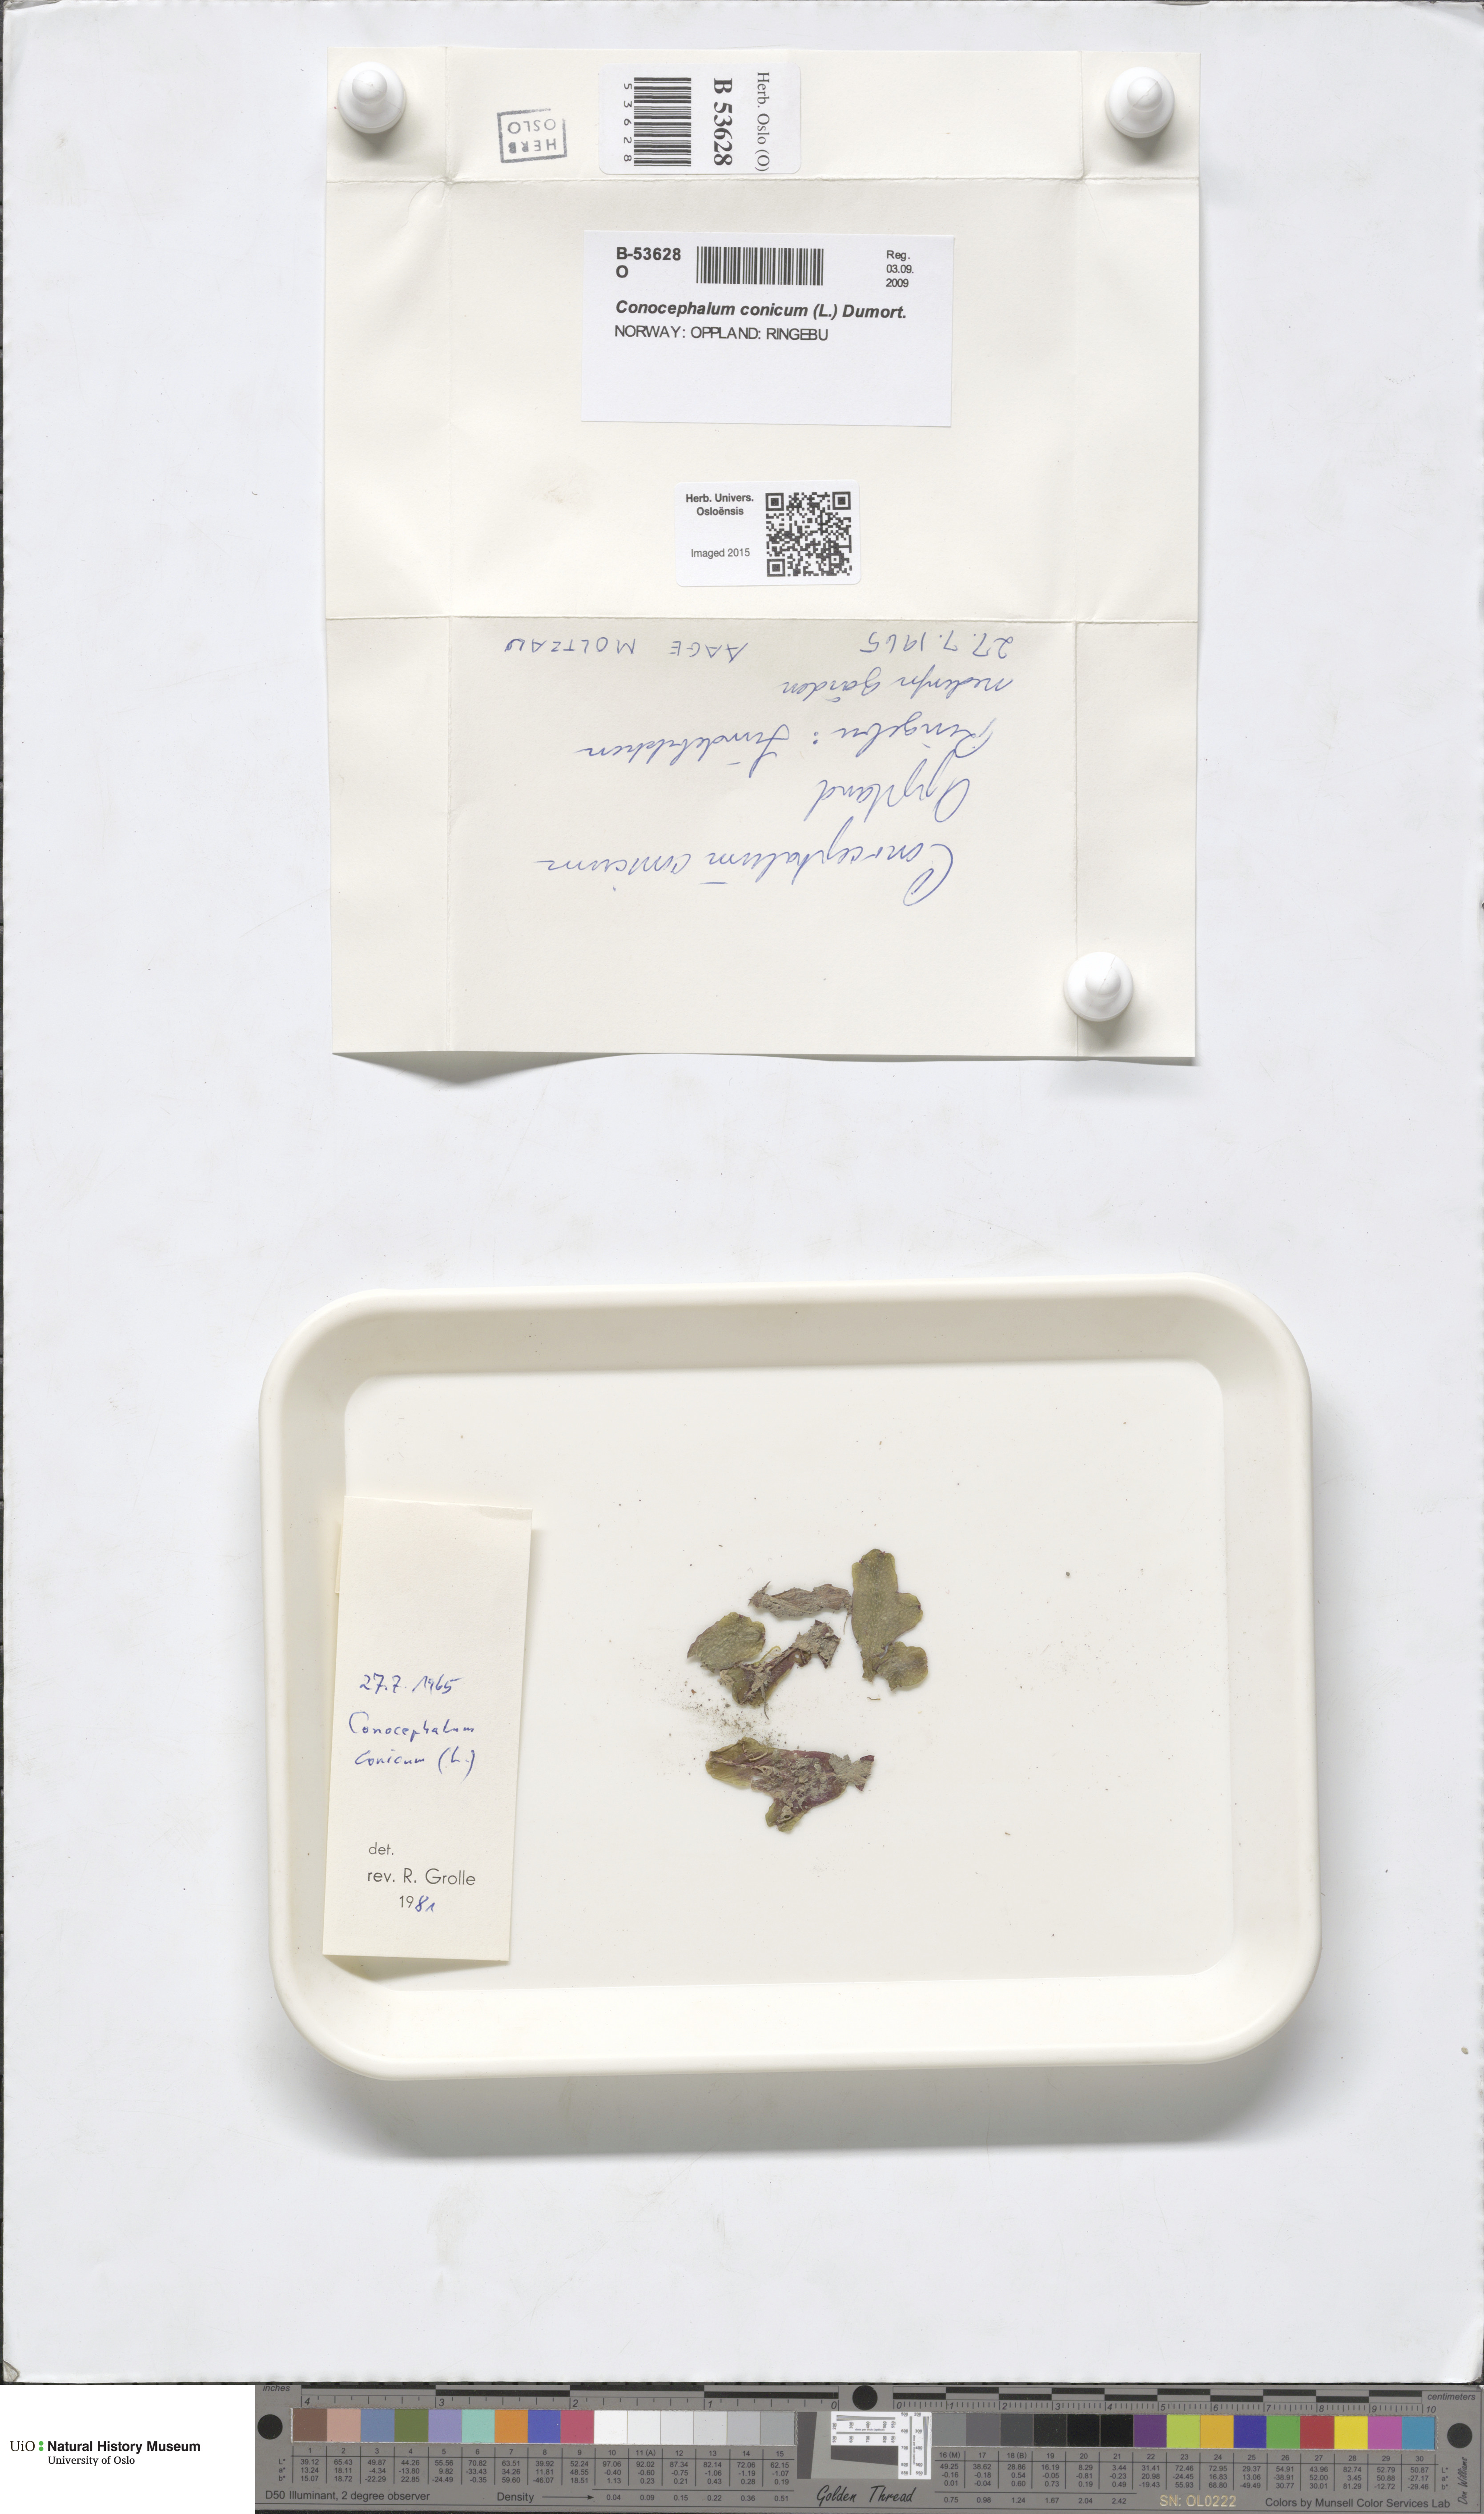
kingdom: Plantae
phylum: Marchantiophyta
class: Marchantiopsida
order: Marchantiales
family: Conocephalaceae
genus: Conocephalum
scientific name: Conocephalum conicum
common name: Great scented liverwort
